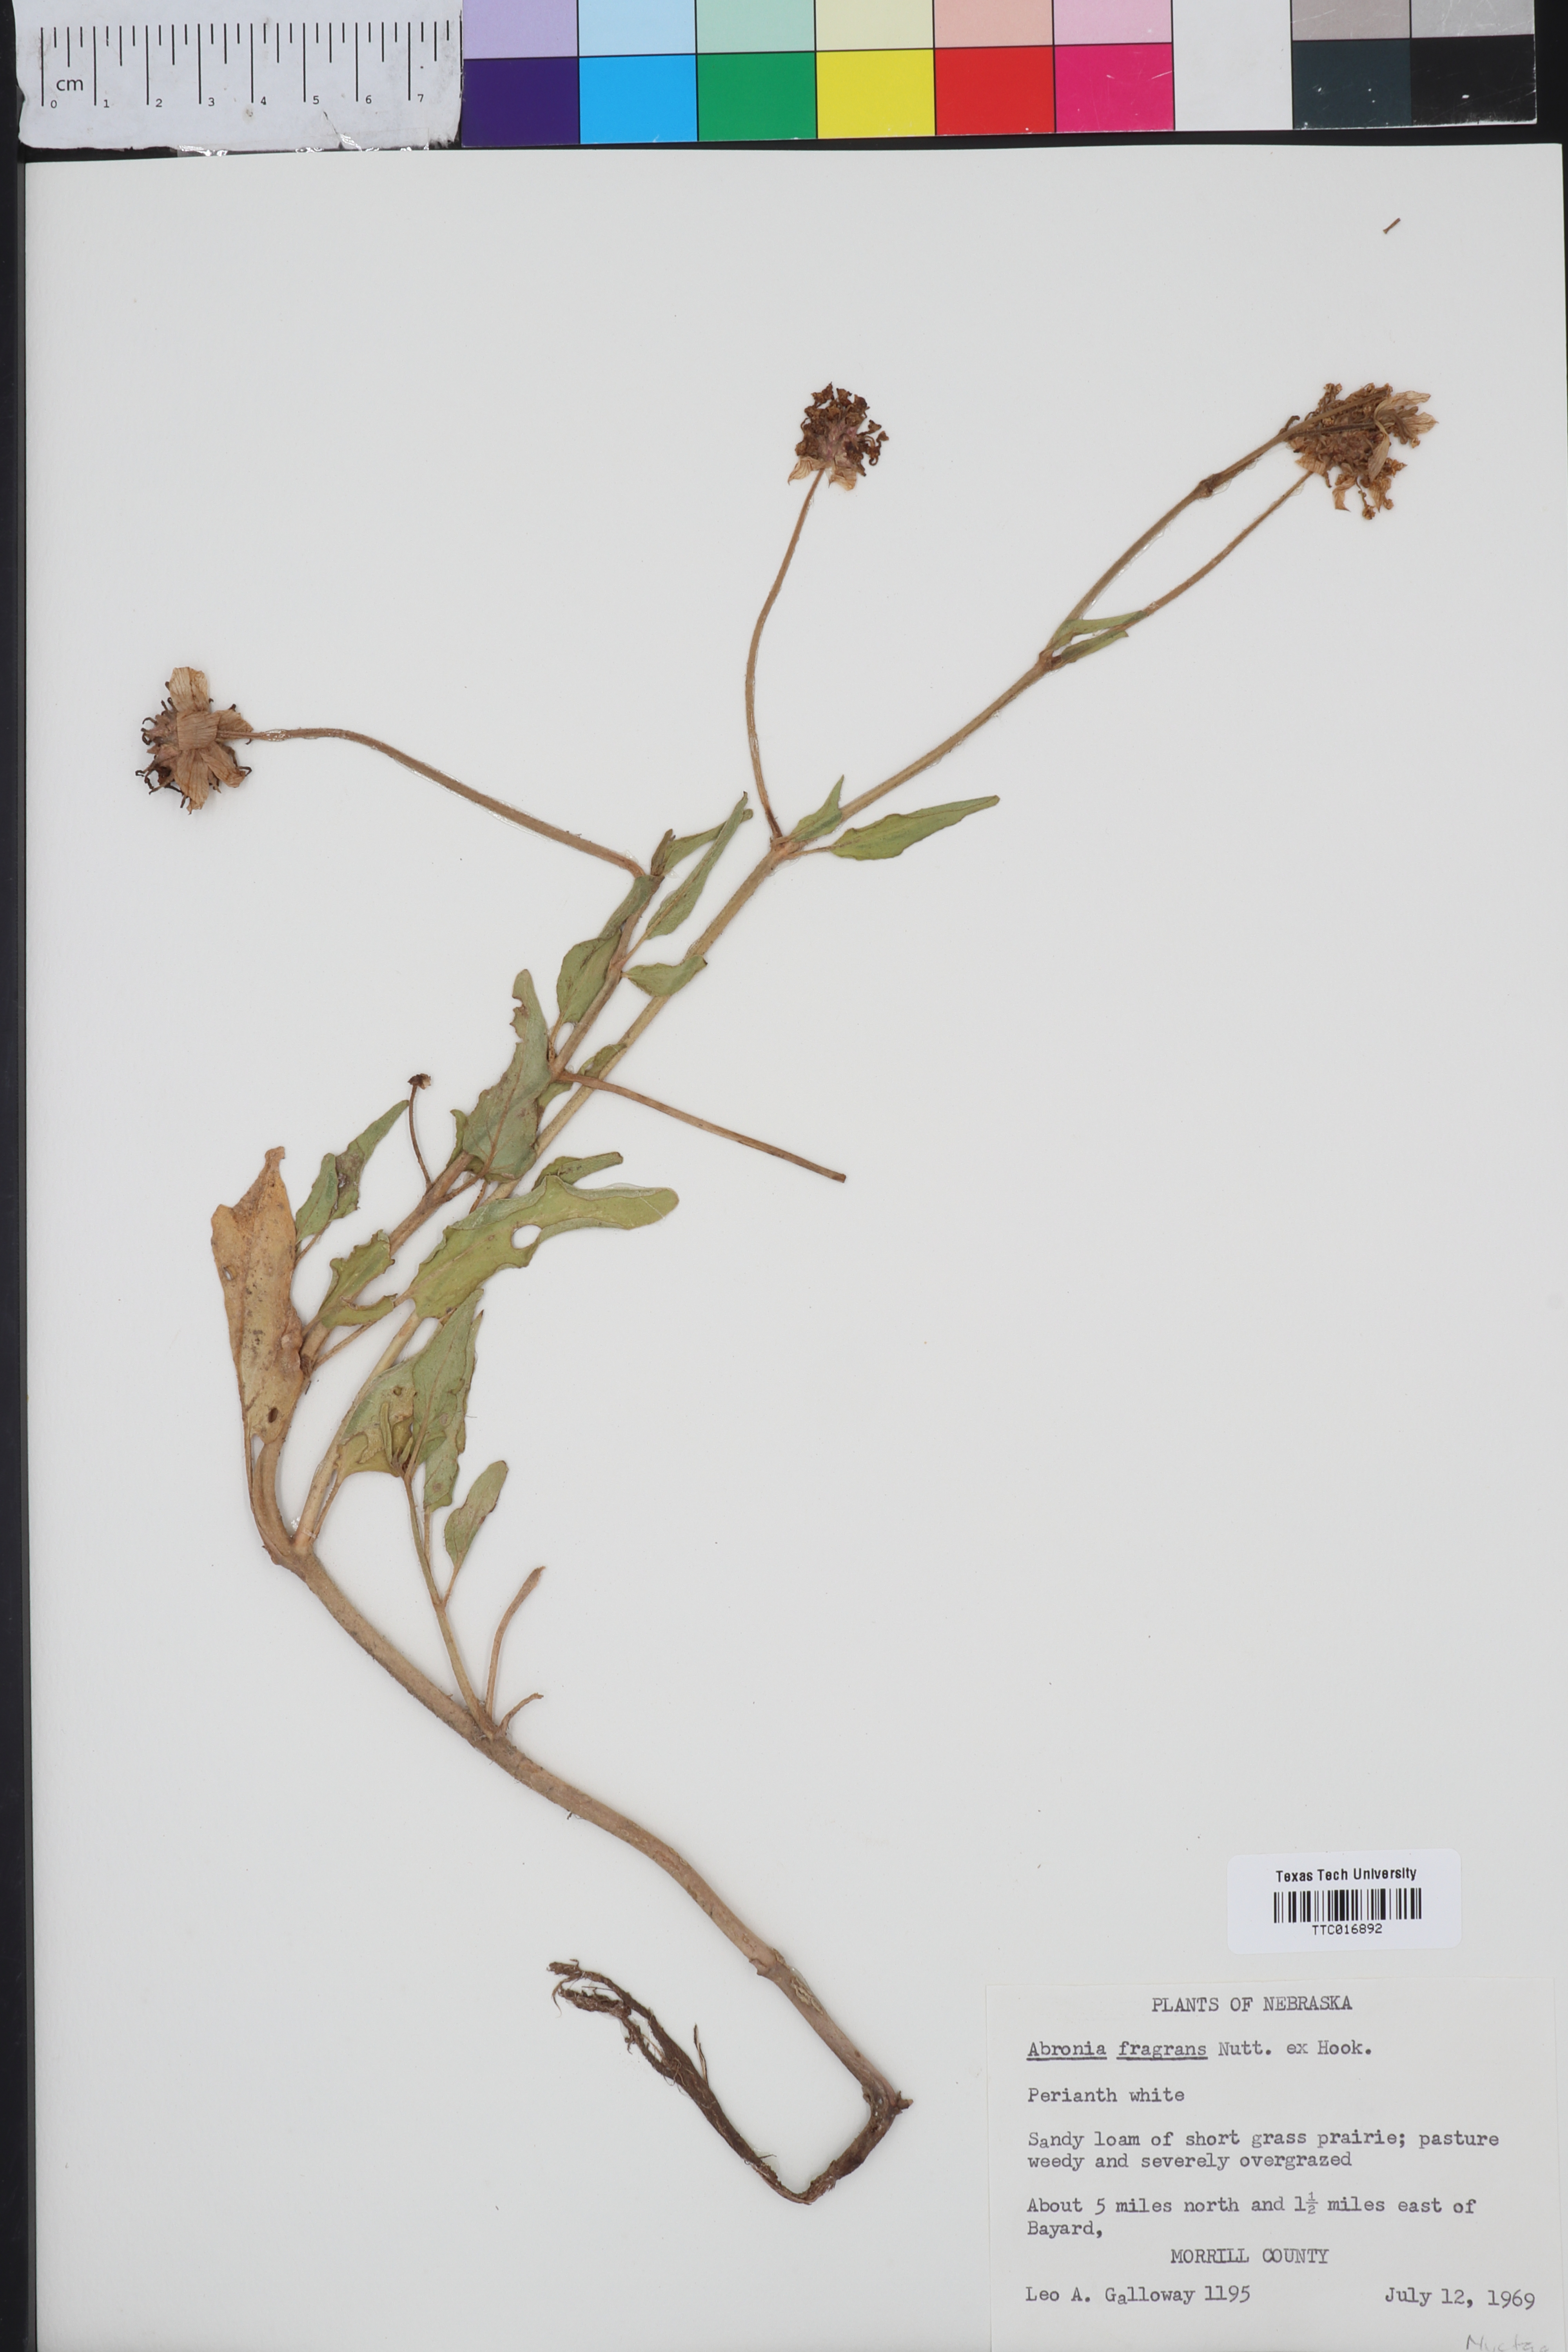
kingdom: Plantae
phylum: Tracheophyta
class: Magnoliopsida
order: Caryophyllales
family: Nyctaginaceae
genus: Abronia
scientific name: Abronia fragrans
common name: Fragrant sand-verbena
